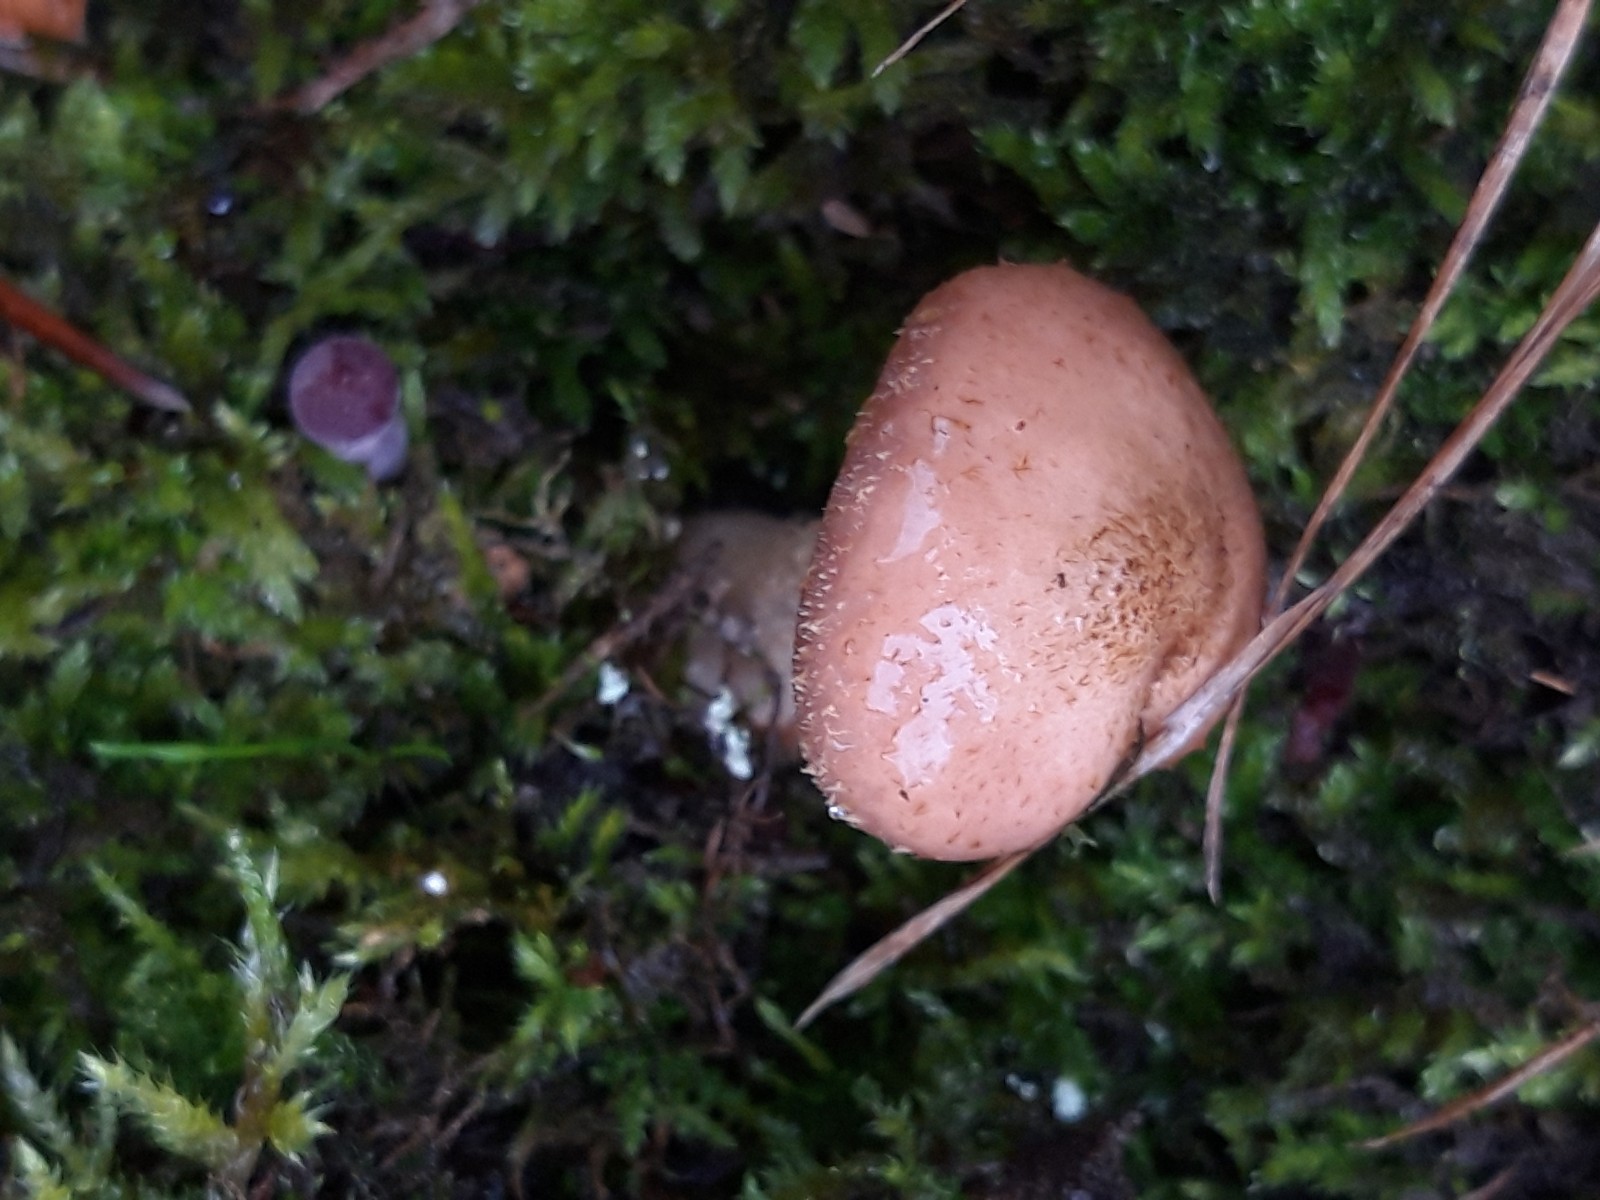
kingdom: Fungi
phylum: Basidiomycota
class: Agaricomycetes
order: Agaricales
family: Physalacriaceae
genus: Armillaria
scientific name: Armillaria lutea
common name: køllestokket honningsvamp
